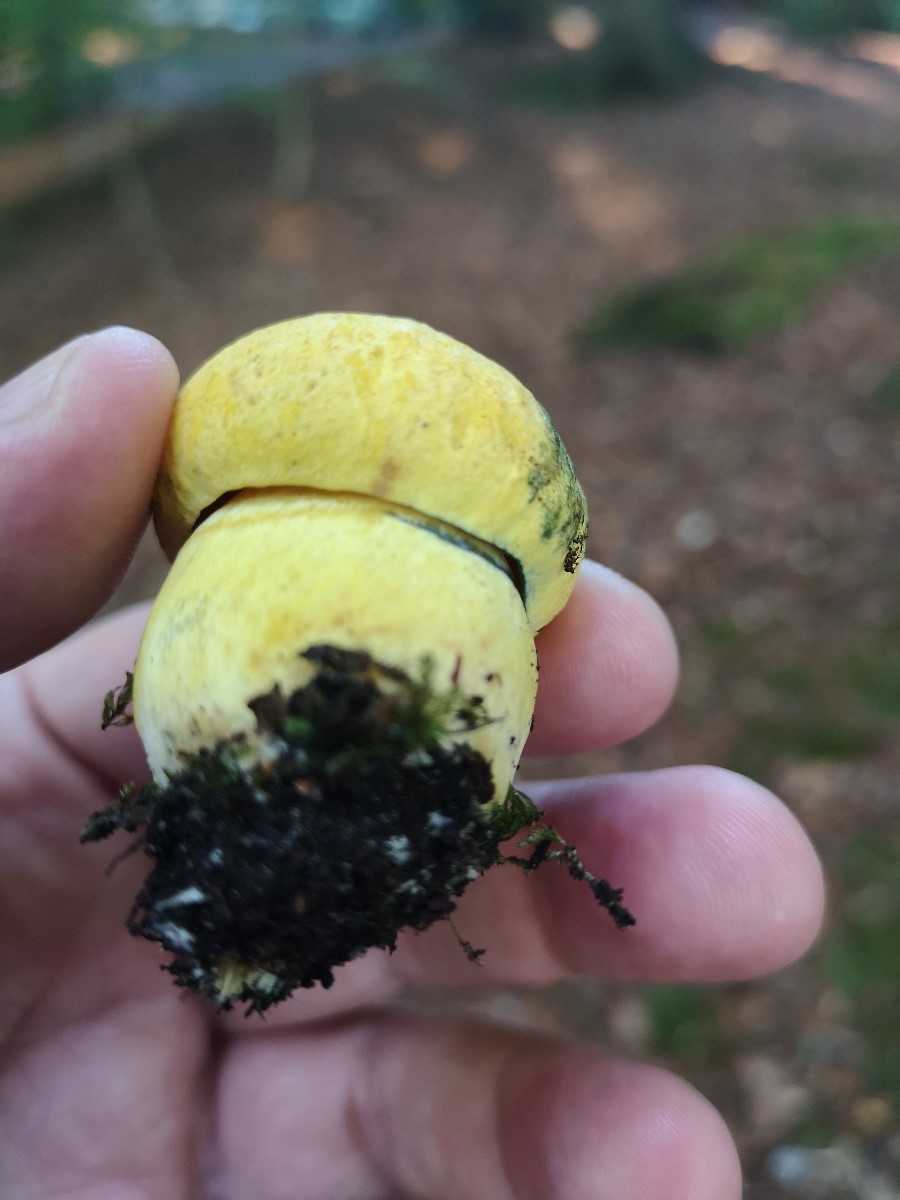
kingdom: Fungi
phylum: Basidiomycota
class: Agaricomycetes
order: Boletales
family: Boletaceae
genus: Neoboletus
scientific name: Neoboletus praestigiator
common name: gul indigorørhat
